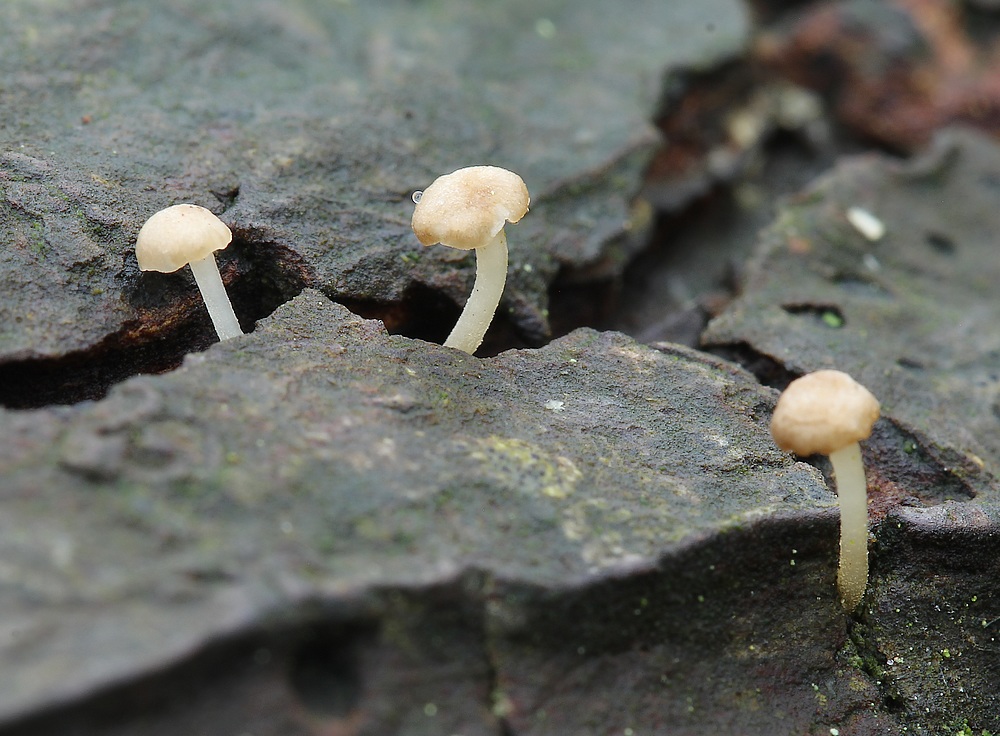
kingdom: Fungi
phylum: Basidiomycota
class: Agaricomycetes
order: Agaricales
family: Porotheleaceae
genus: Phloeomana
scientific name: Phloeomana speirea
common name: kvist-huesvamp
